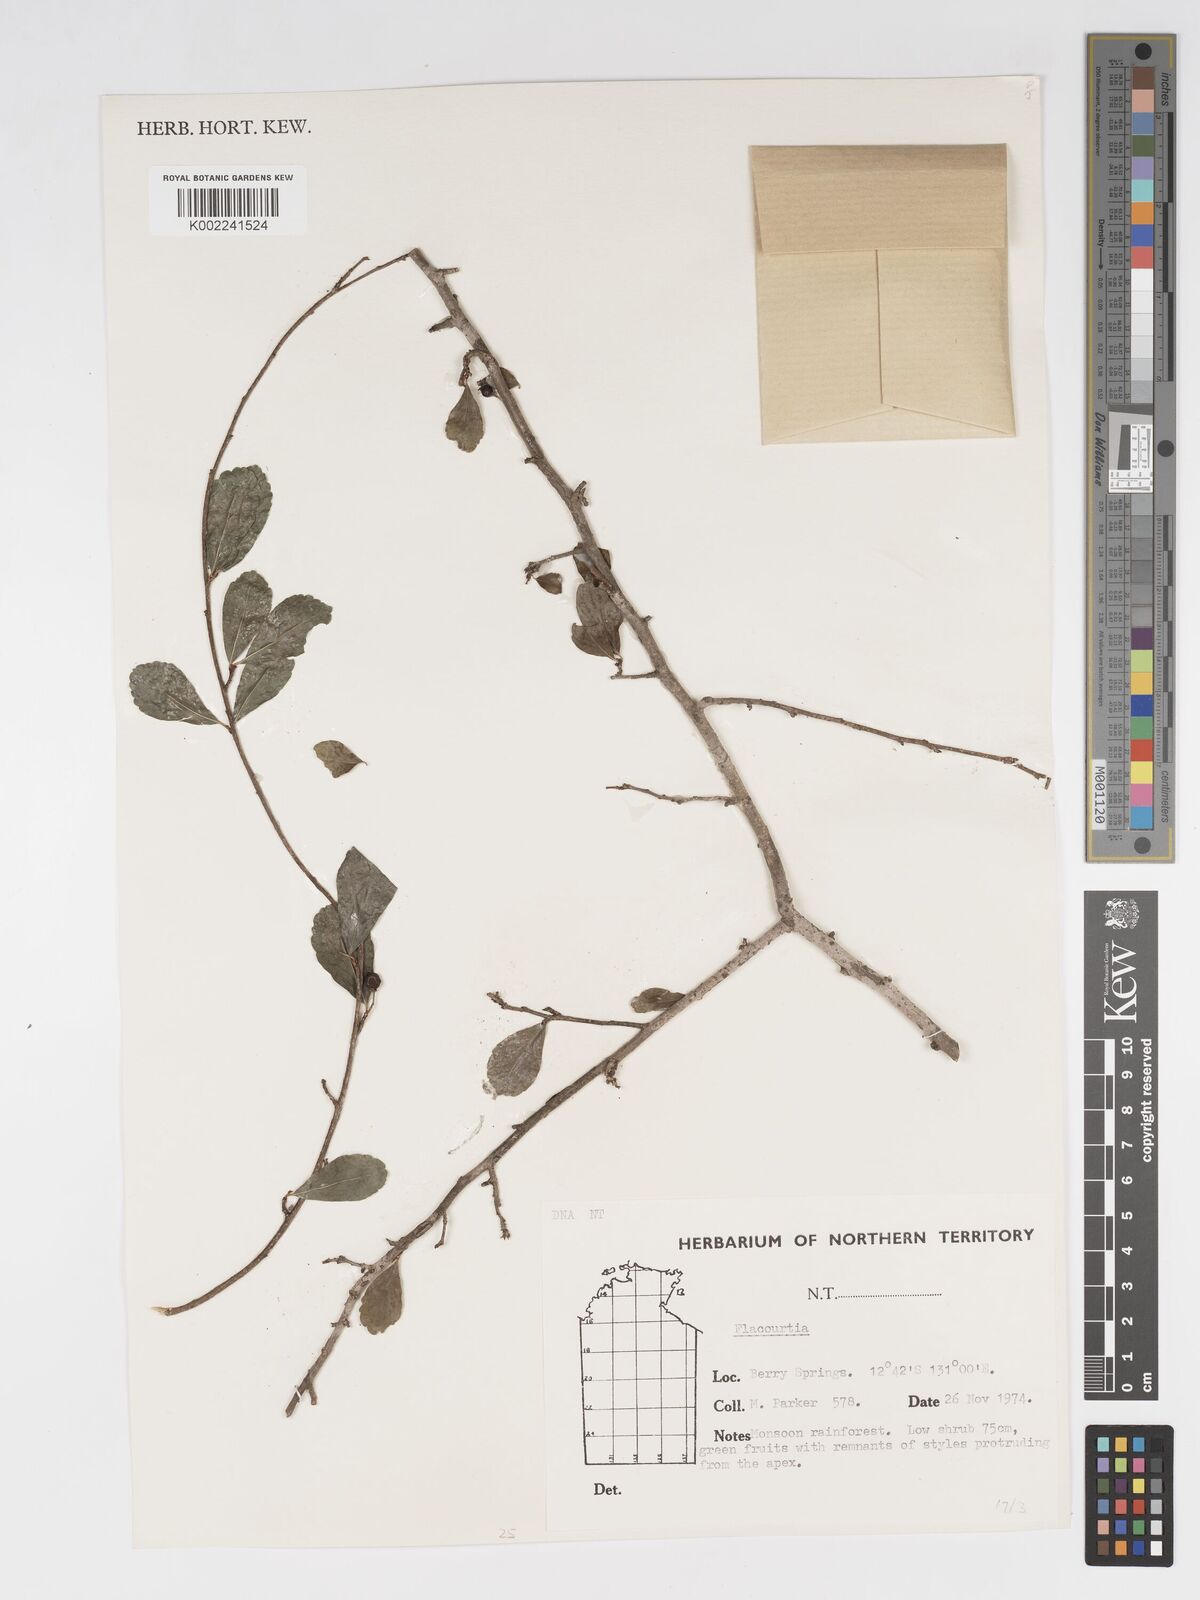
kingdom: Plantae
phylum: Tracheophyta
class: Magnoliopsida
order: Malpighiales
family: Salicaceae
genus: Flacourtia
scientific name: Flacourtia
